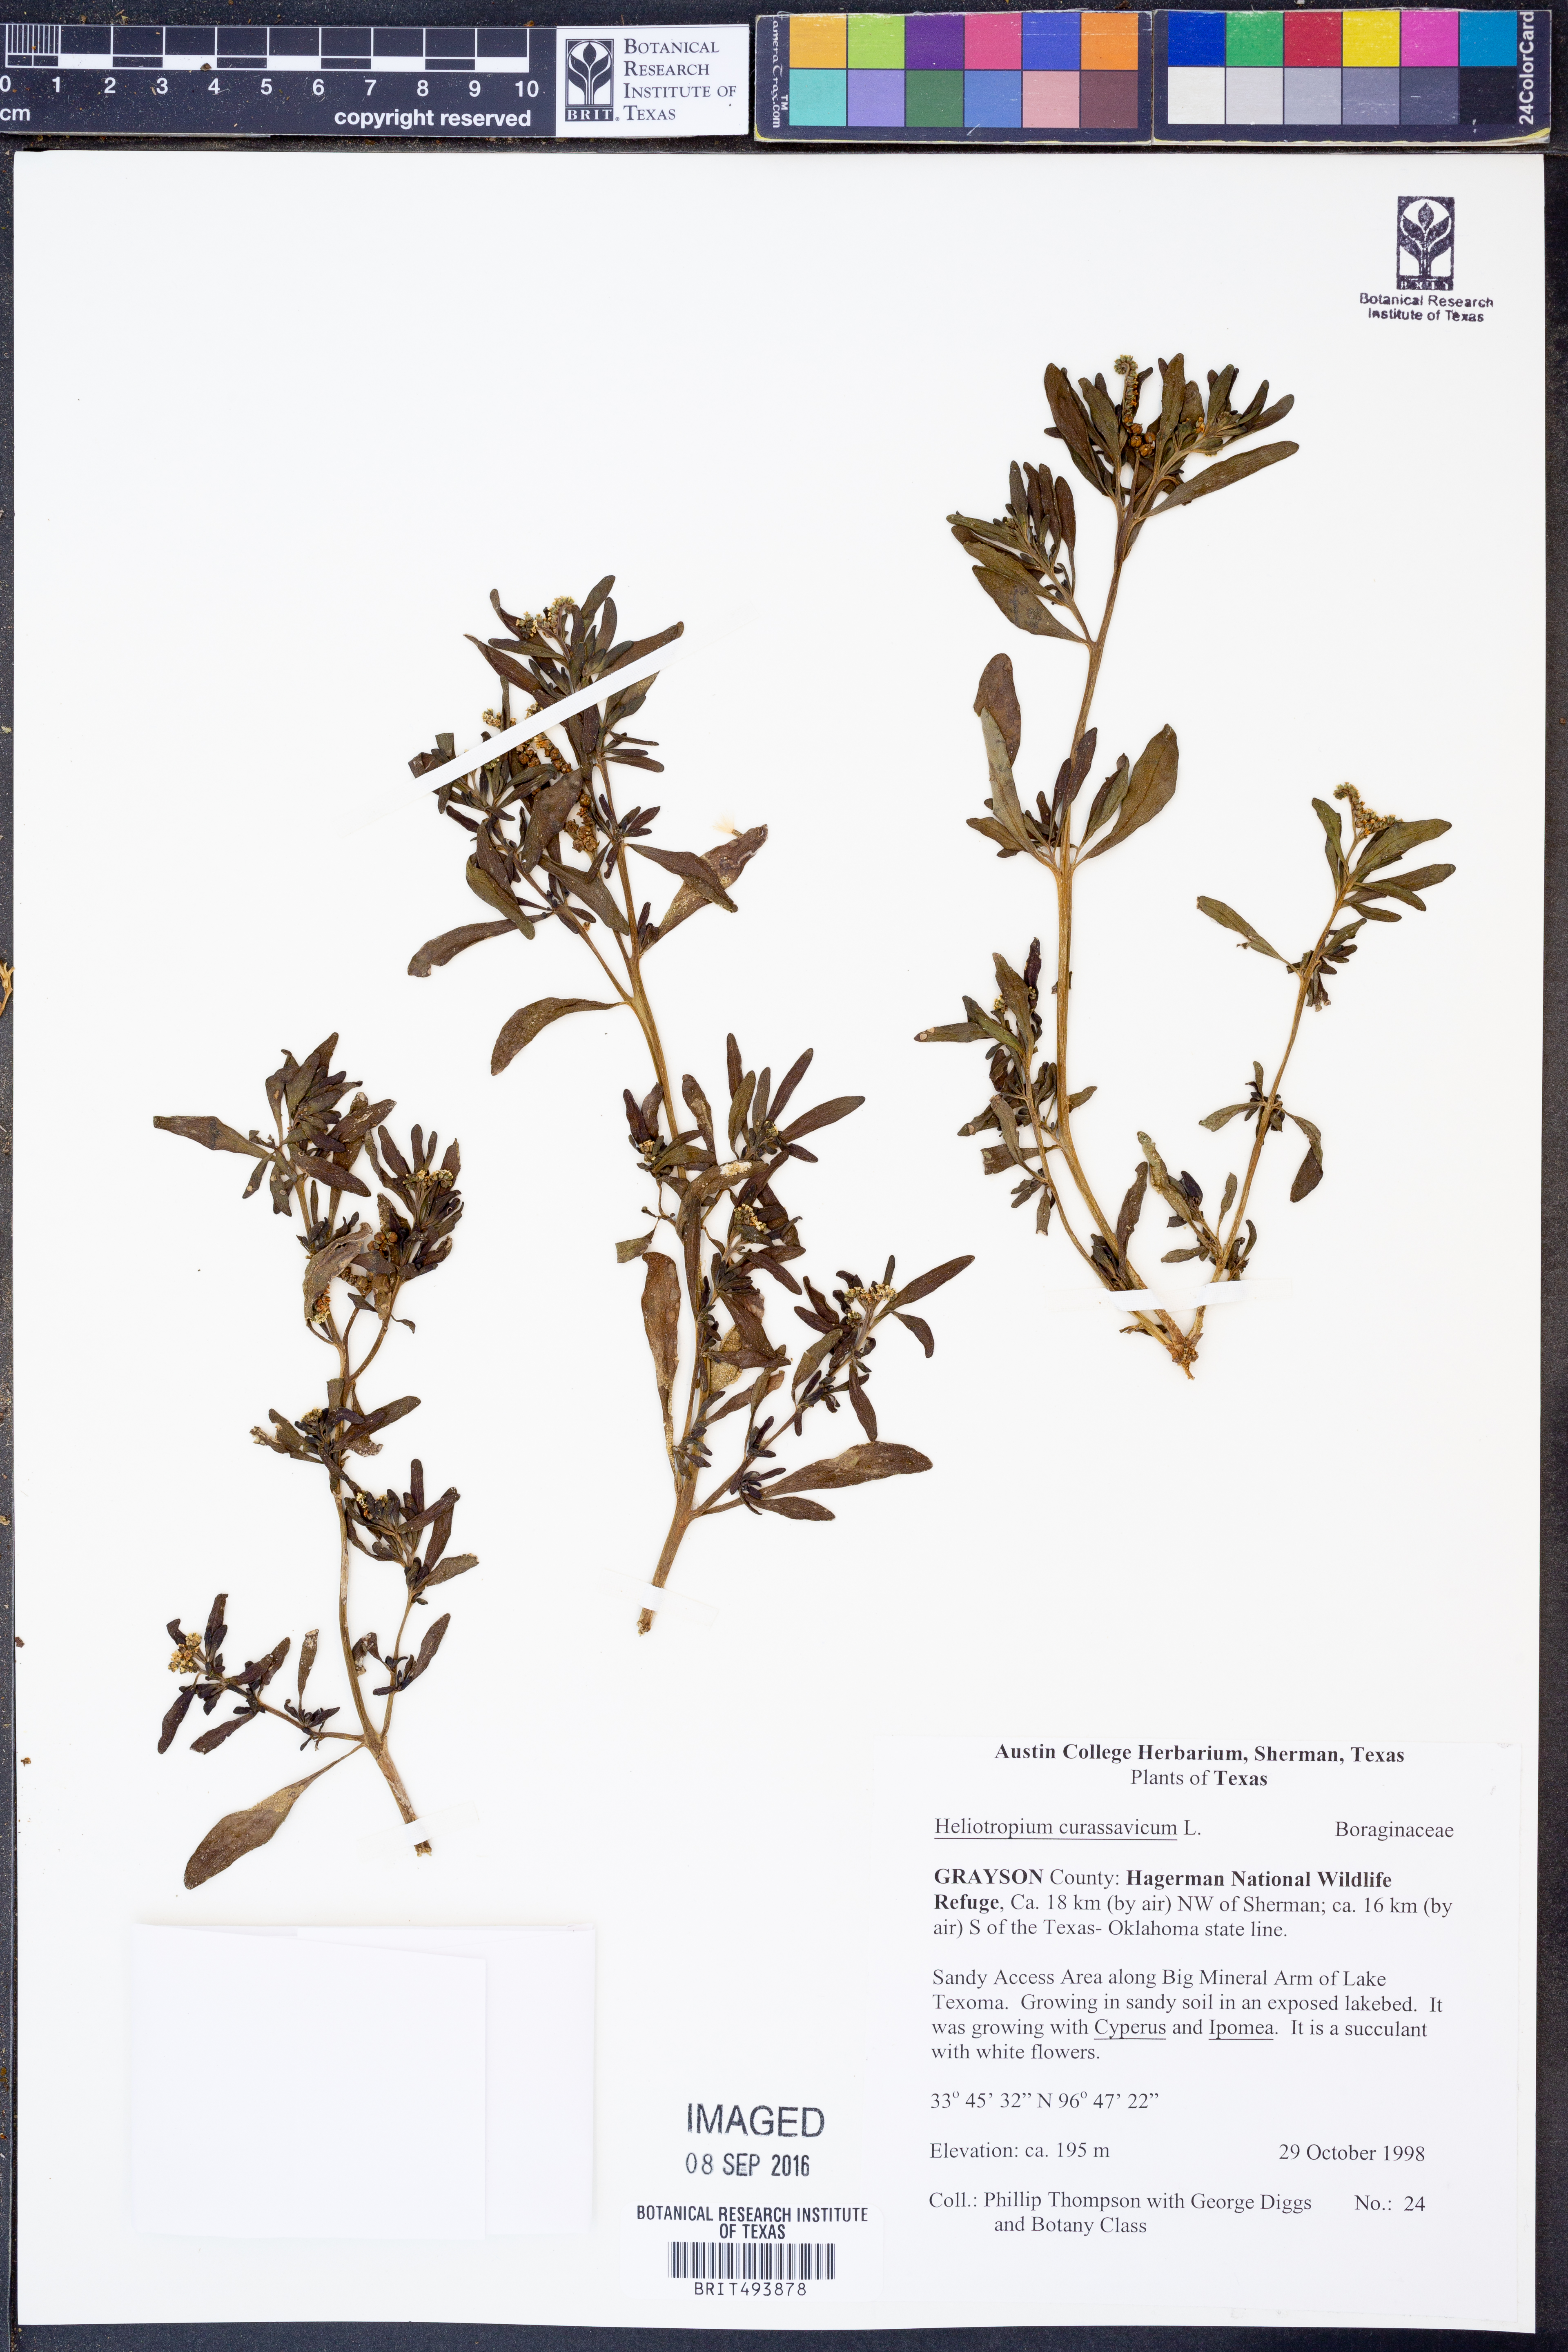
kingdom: Plantae
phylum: Tracheophyta
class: Magnoliopsida
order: Boraginales
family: Heliotropiaceae
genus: Heliotropium
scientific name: Heliotropium curassavicum
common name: Seaside heliotrope
